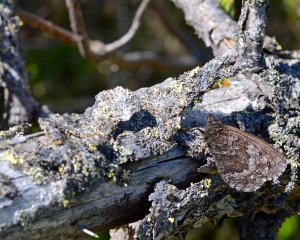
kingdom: Animalia
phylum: Arthropoda
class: Insecta
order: Lepidoptera
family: Nymphalidae
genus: Oeneis
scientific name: Oeneis jutta
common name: Jutta Arctic
